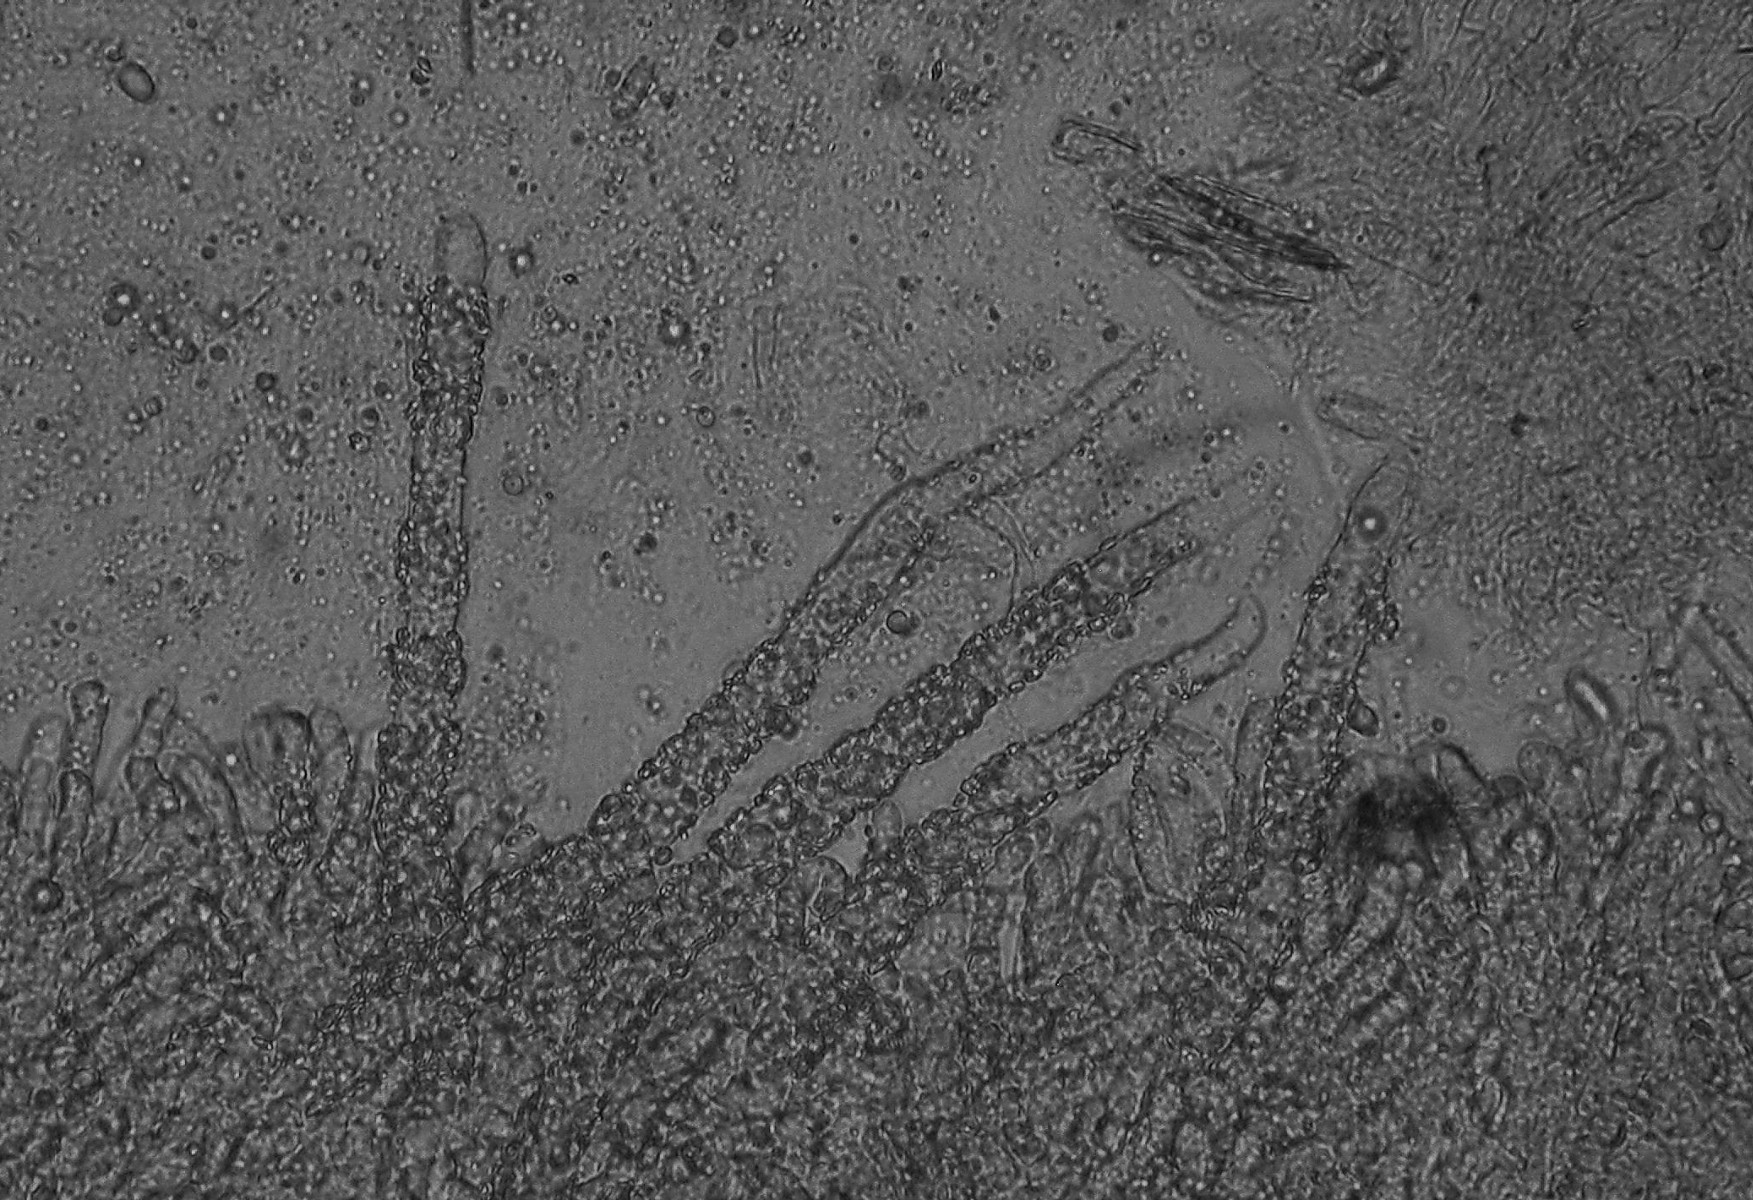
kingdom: Fungi
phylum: Basidiomycota
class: Agaricomycetes
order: Polyporales
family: Hyphodermataceae
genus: Hyphoderma
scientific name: Hyphoderma setigerum
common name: håret kalkskind
